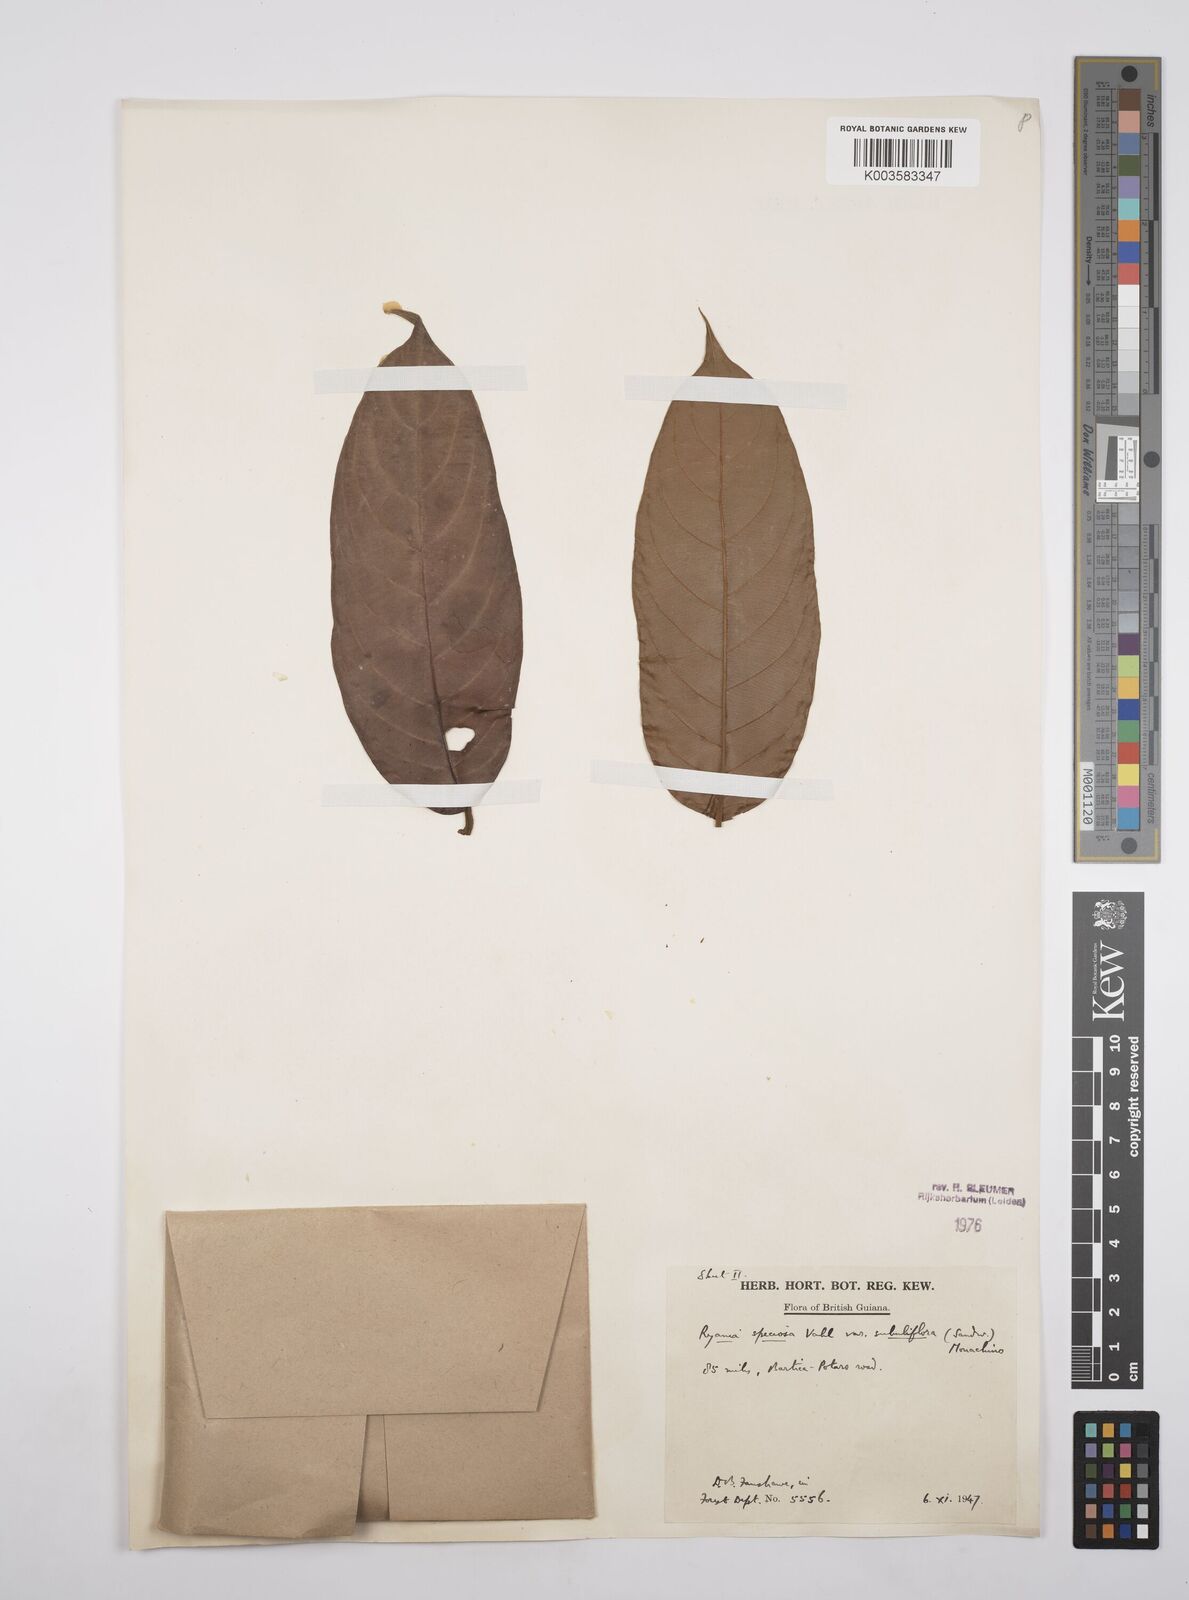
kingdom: Plantae
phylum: Tracheophyta
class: Magnoliopsida
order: Malpighiales
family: Salicaceae
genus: Ryania
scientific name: Ryania speciosa
